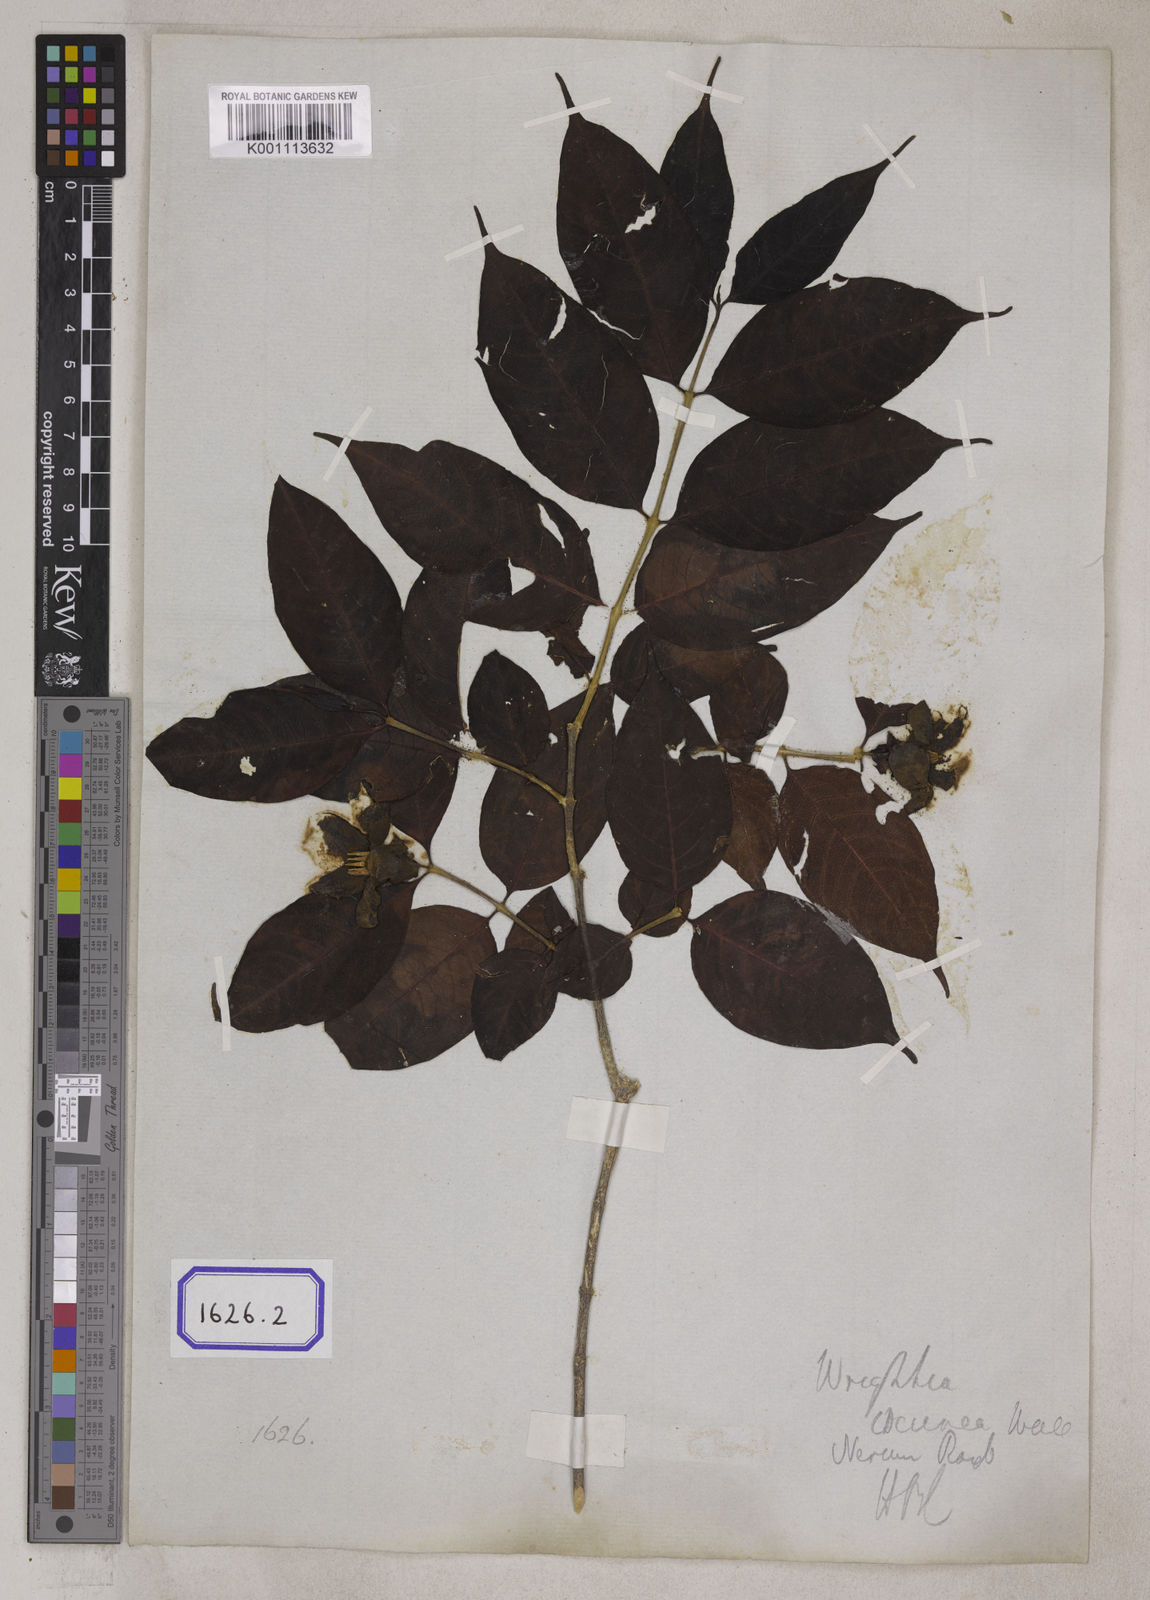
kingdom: Plantae
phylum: Tracheophyta
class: Magnoliopsida
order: Gentianales
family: Apocynaceae
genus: Wrightia
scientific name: Wrightia coccinea
